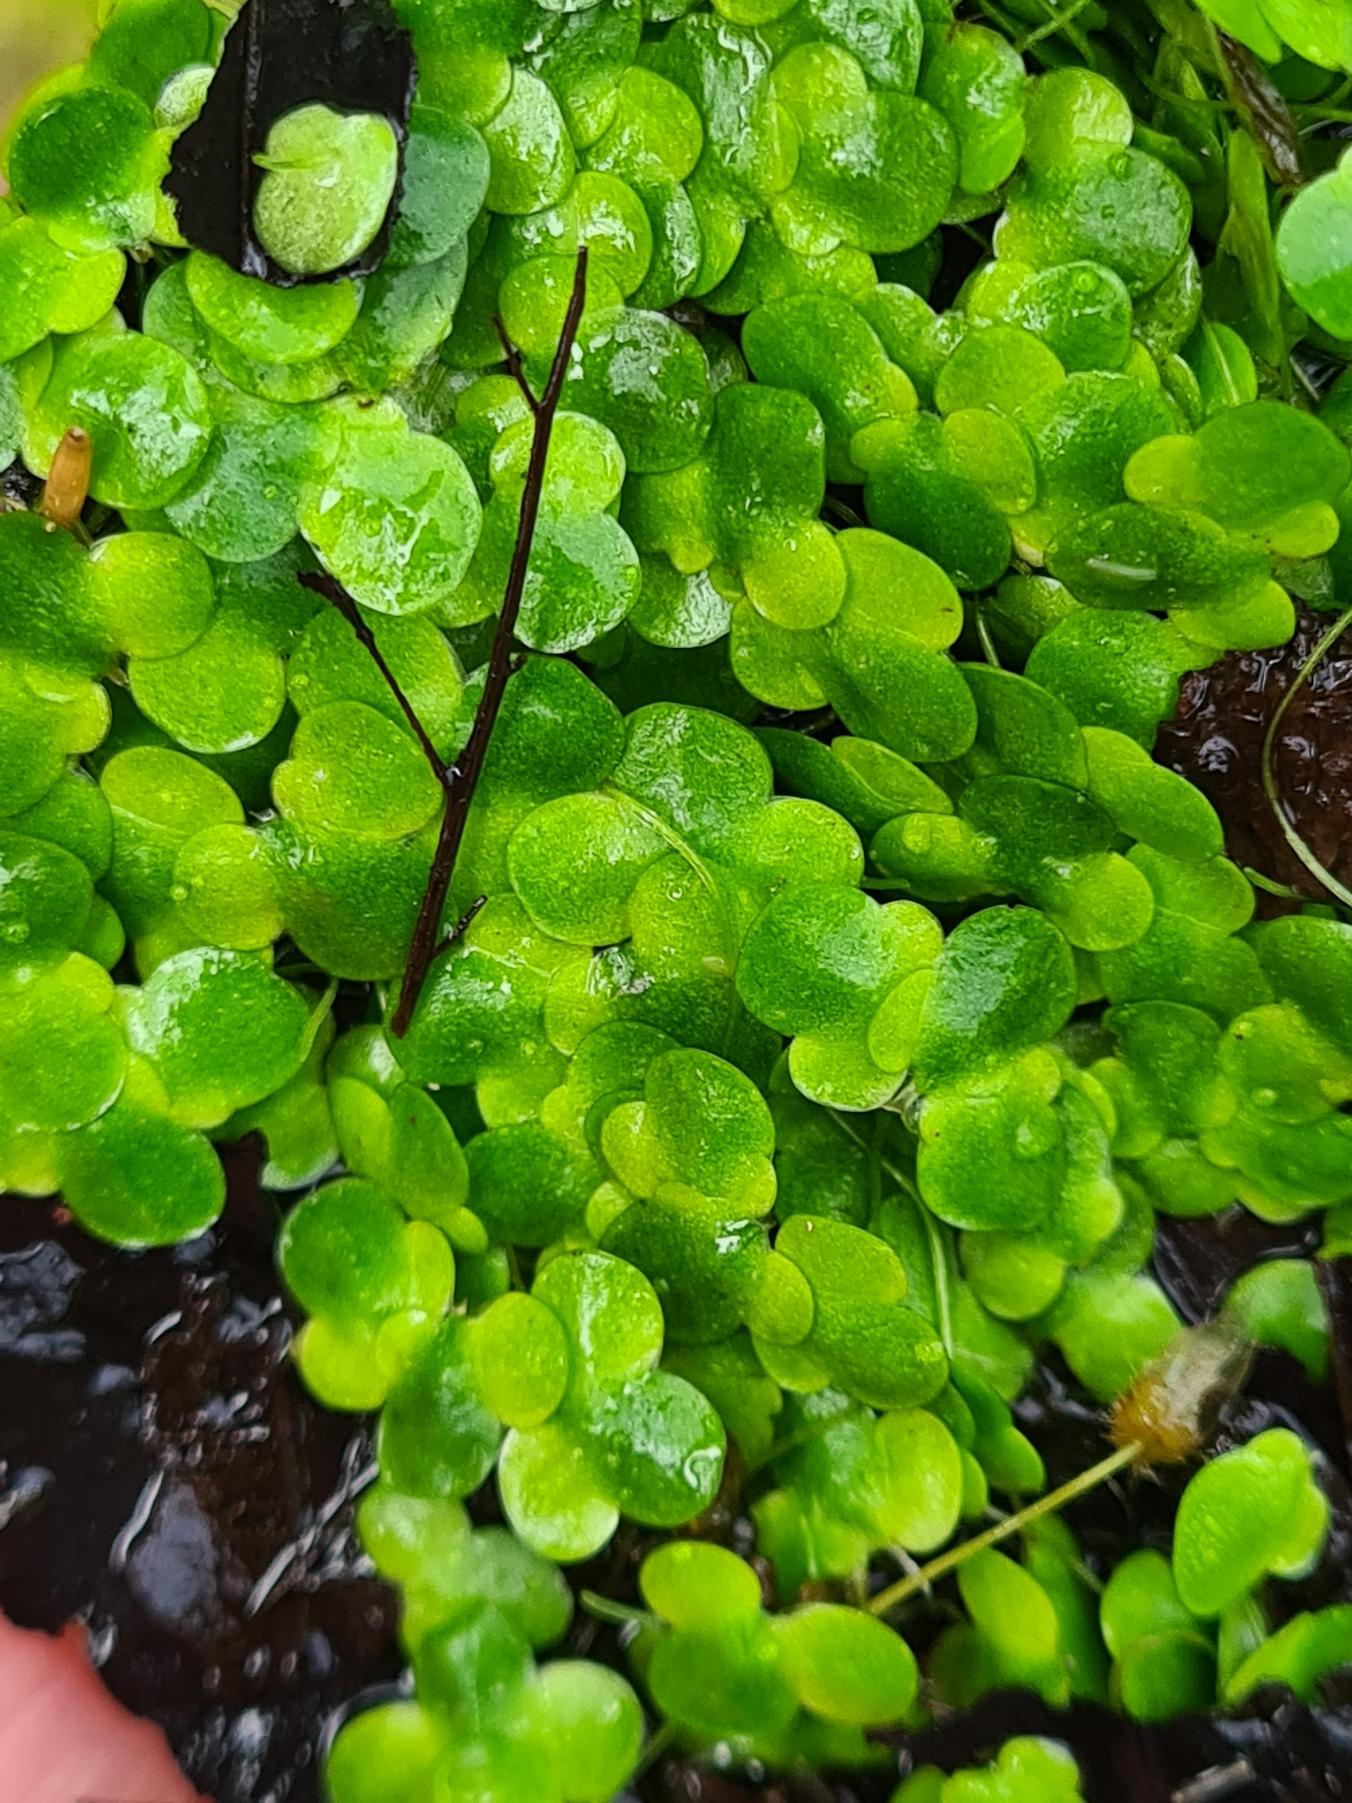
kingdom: Plantae
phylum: Tracheophyta
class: Liliopsida
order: Alismatales
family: Araceae
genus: Lemna
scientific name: Lemna minor
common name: Liden andemad
